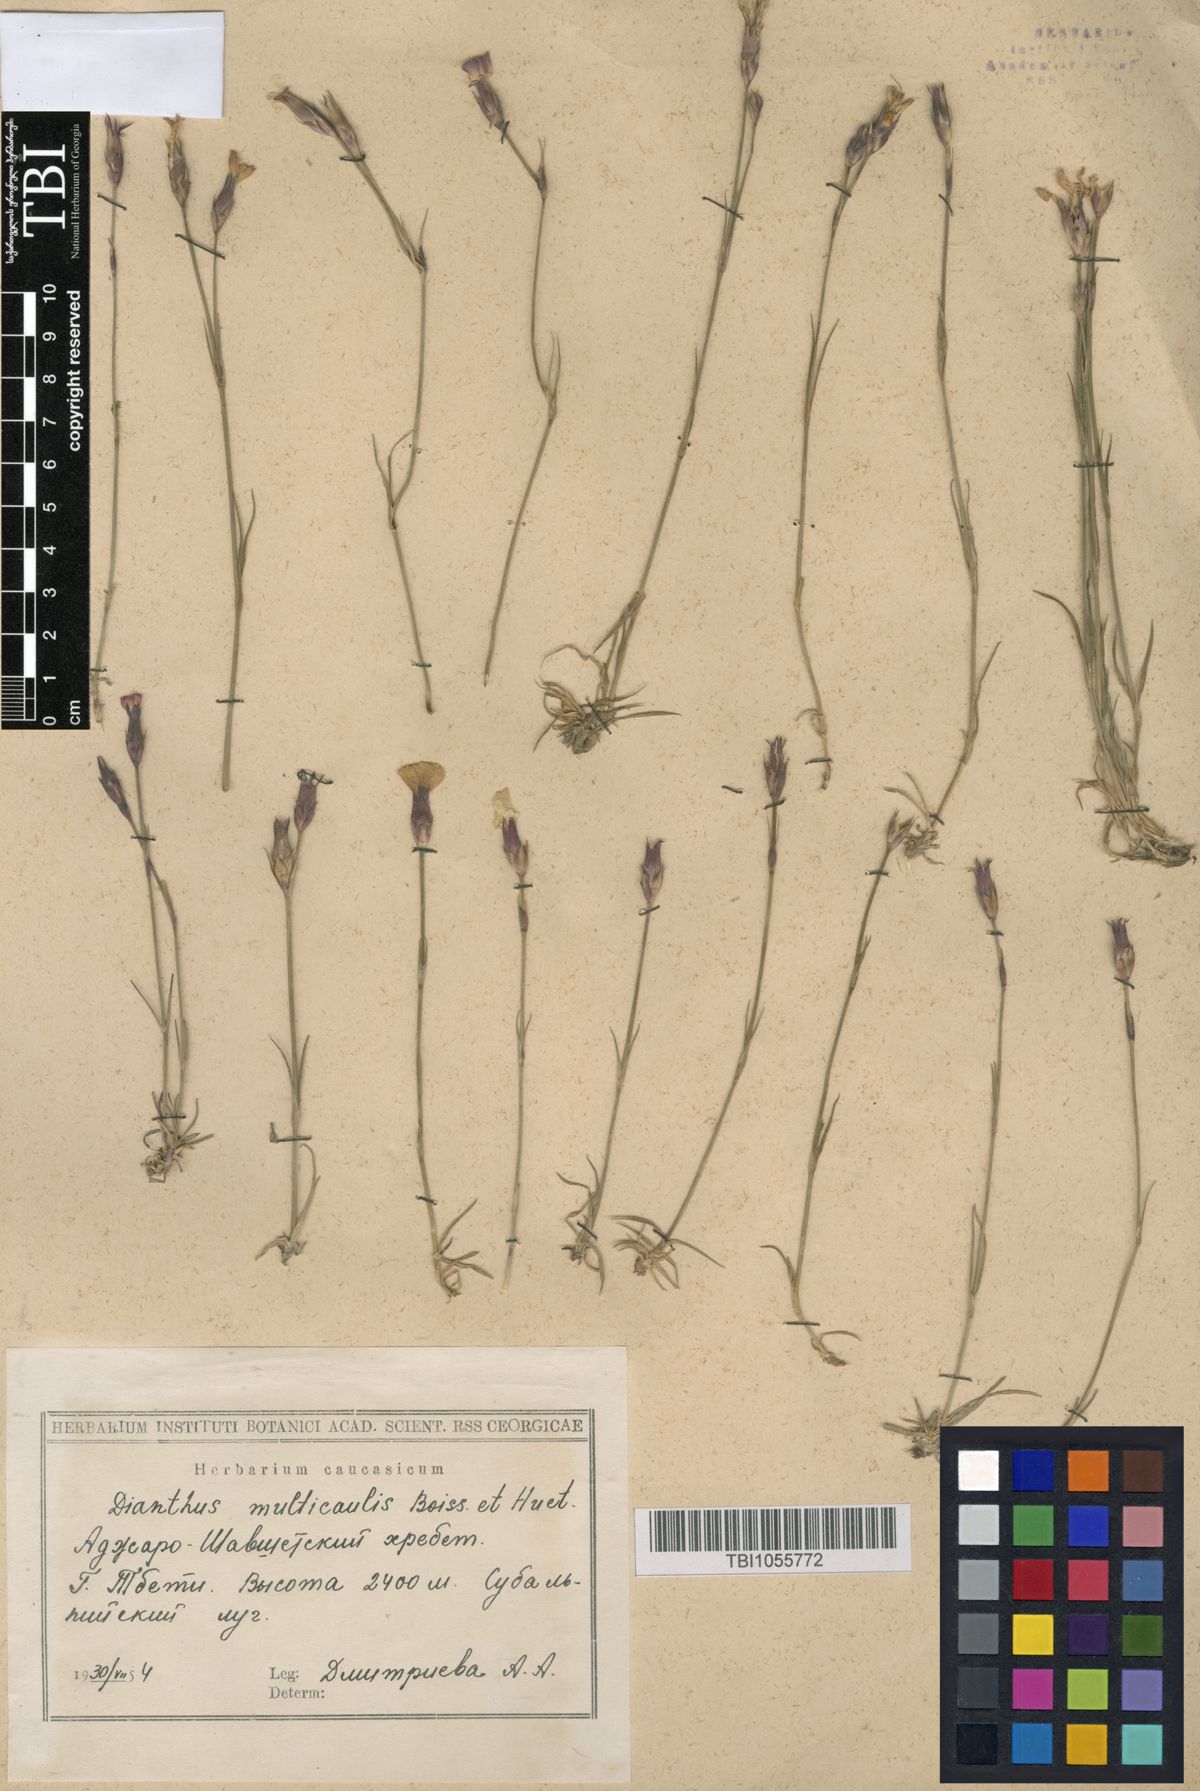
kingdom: Plantae
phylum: Tracheophyta
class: Magnoliopsida
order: Caryophyllales
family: Caryophyllaceae
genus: Dianthus
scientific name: Dianthus cretaceus
